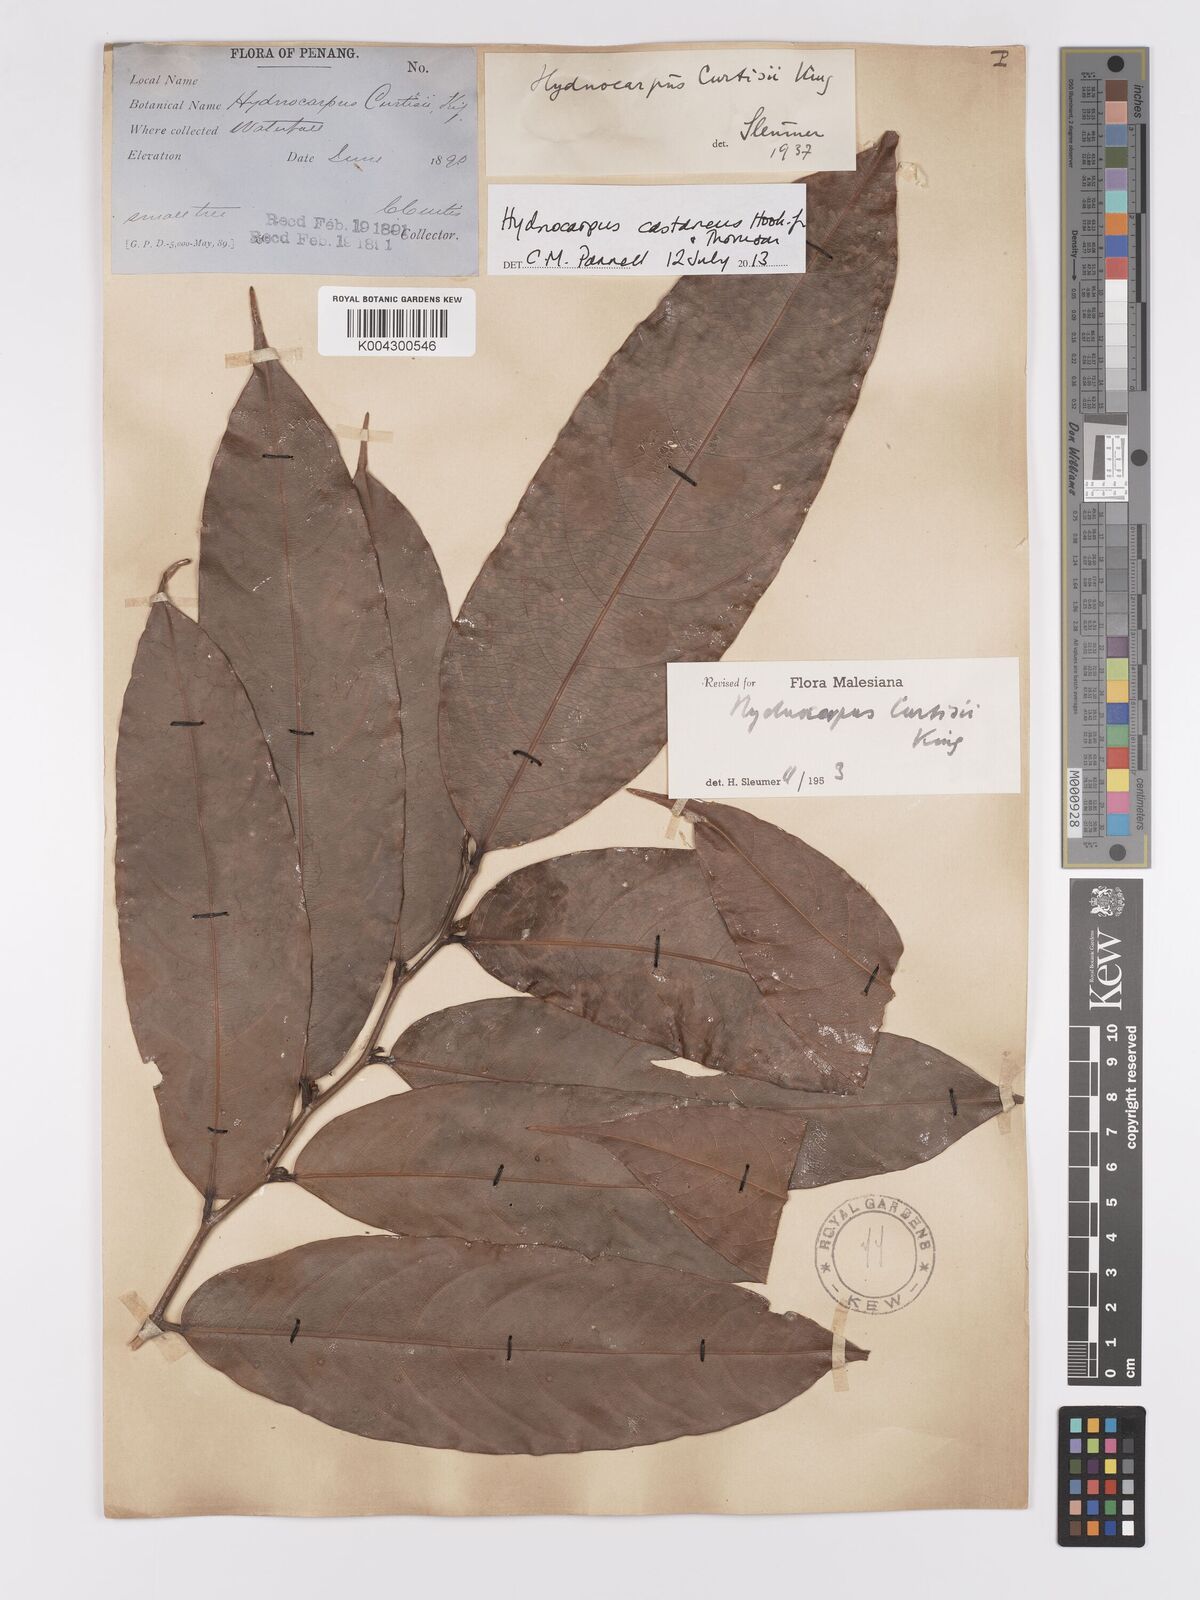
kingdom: Plantae
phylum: Tracheophyta
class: Magnoliopsida
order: Malpighiales
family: Achariaceae
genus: Hydnocarpus
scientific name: Hydnocarpus curtisii
